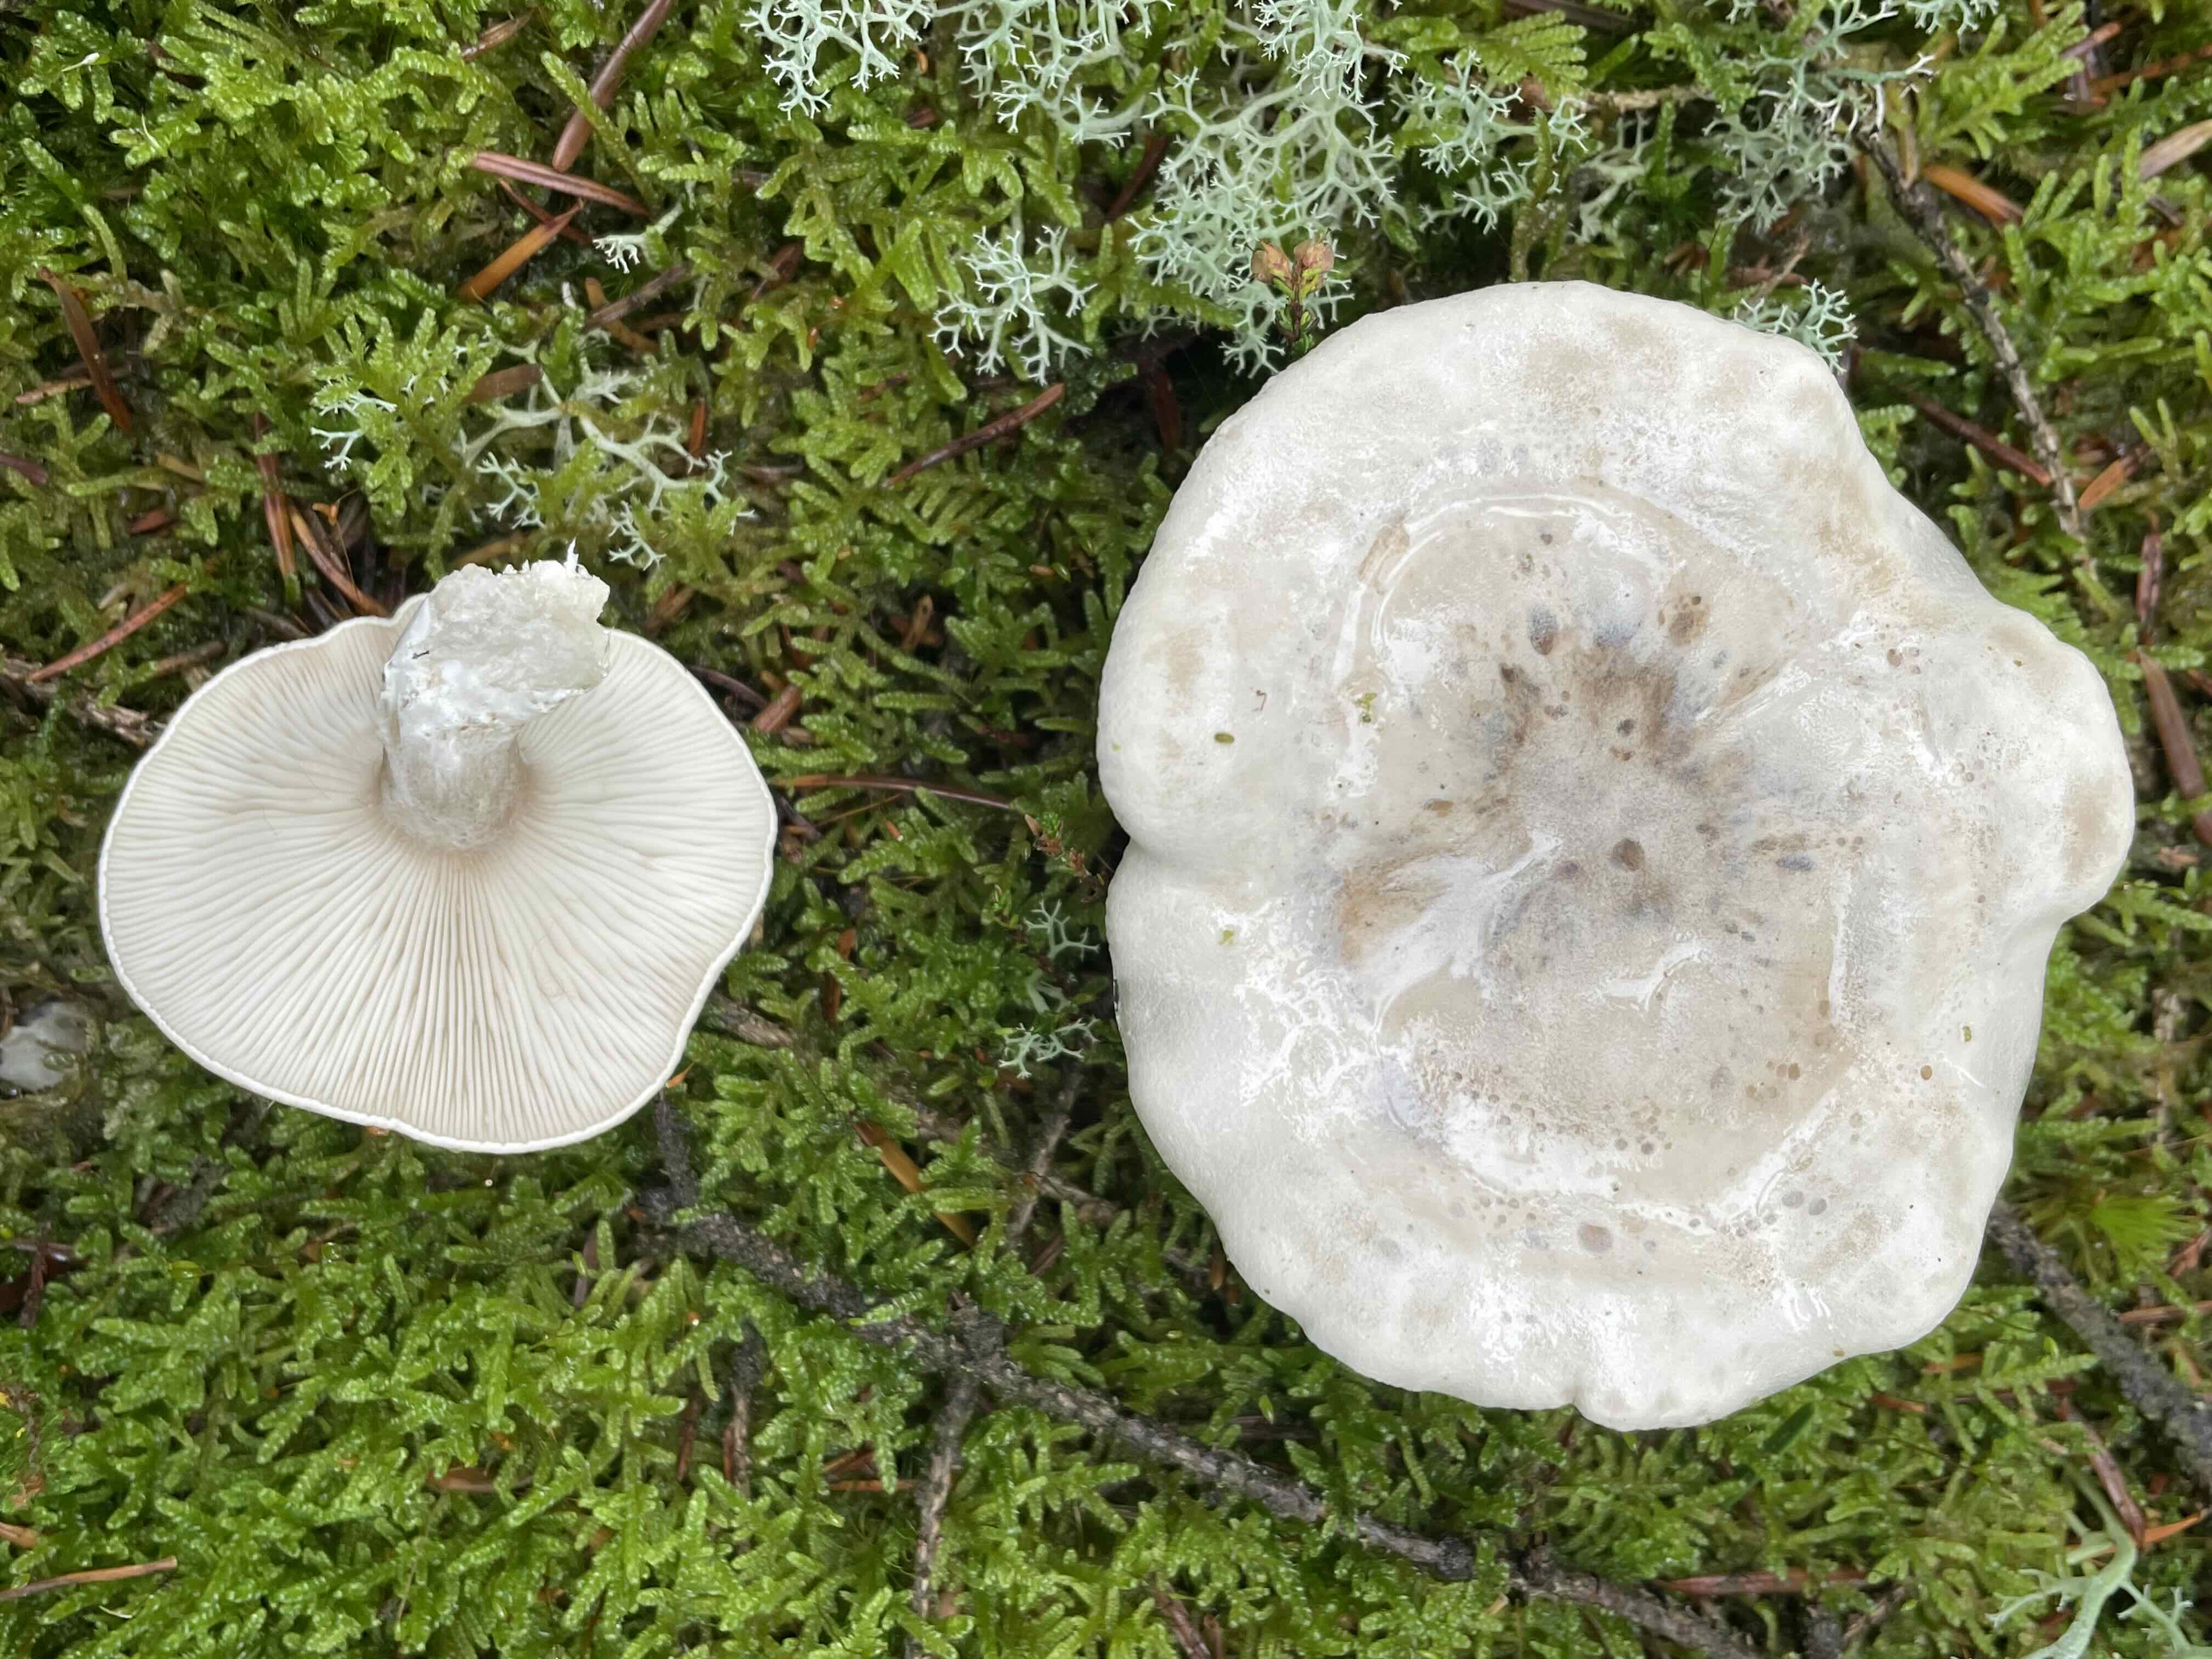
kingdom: Fungi
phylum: Basidiomycota
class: Agaricomycetes
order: Agaricales
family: Entolomataceae
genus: Clitopilus
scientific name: Clitopilus prunulus
